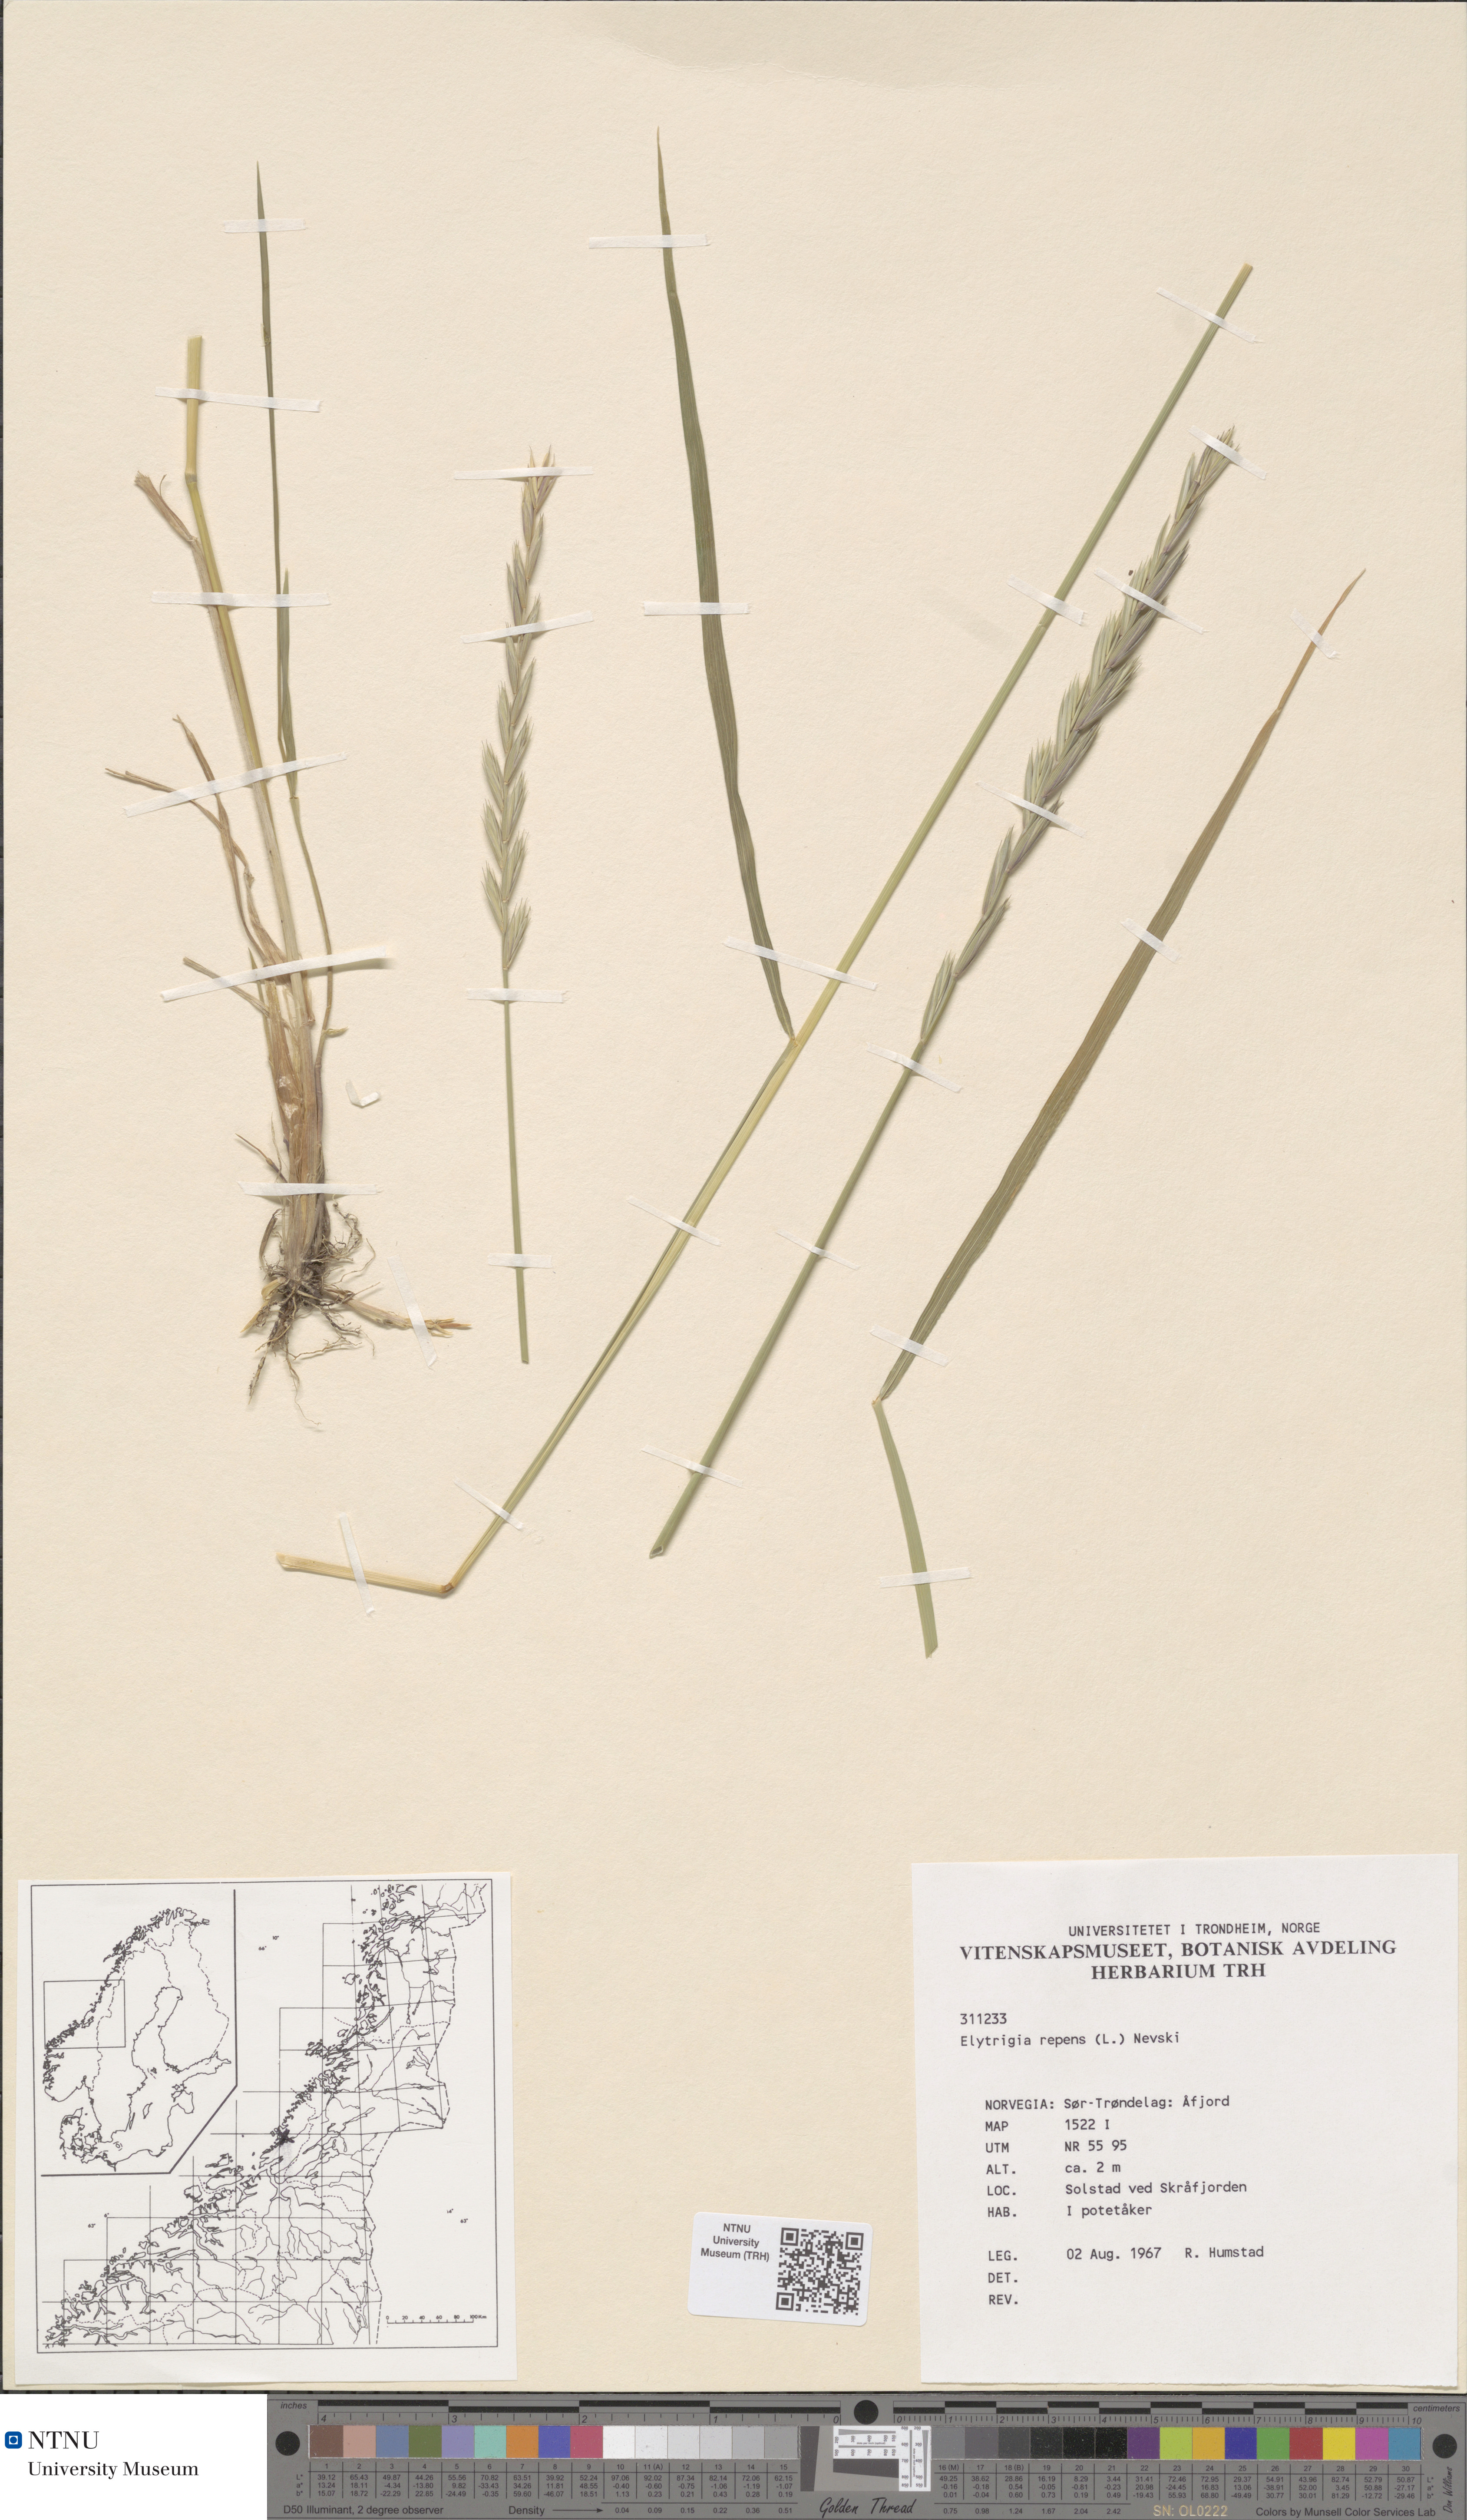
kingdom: Plantae
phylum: Tracheophyta
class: Liliopsida
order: Poales
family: Poaceae
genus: Elymus
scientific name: Elymus repens
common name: Quackgrass
